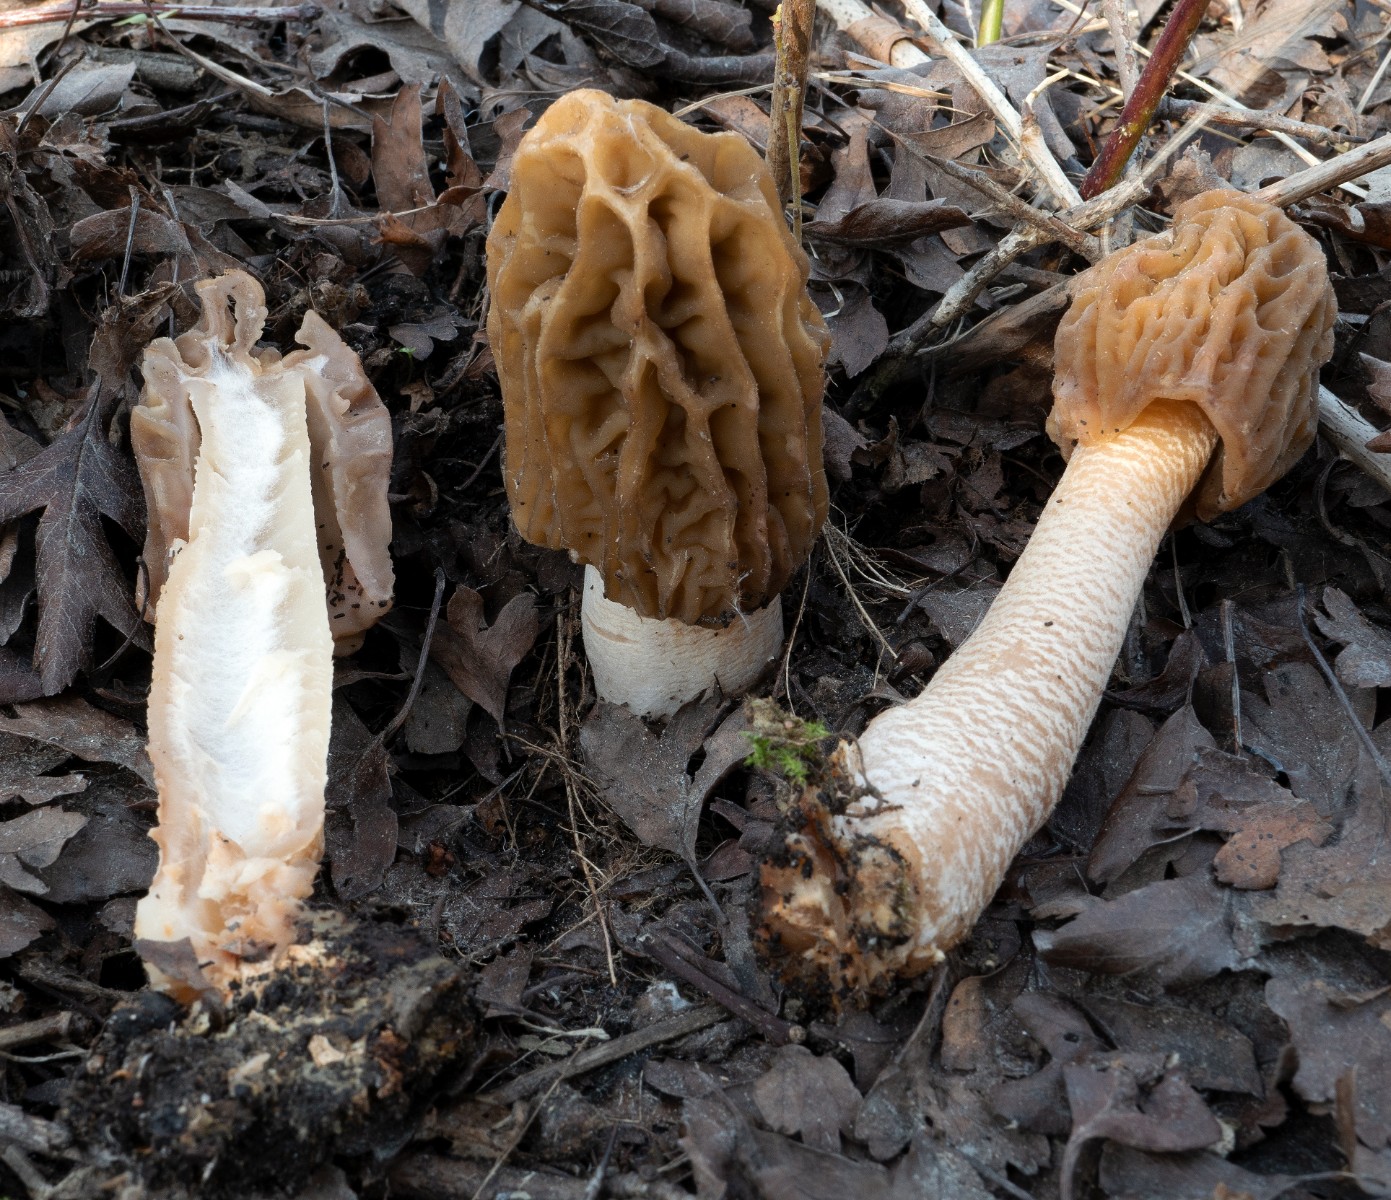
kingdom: Fungi
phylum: Ascomycota
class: Pezizomycetes
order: Pezizales
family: Morchellaceae
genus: Verpa
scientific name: Verpa bohemica
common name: rynket klokkemorkel
